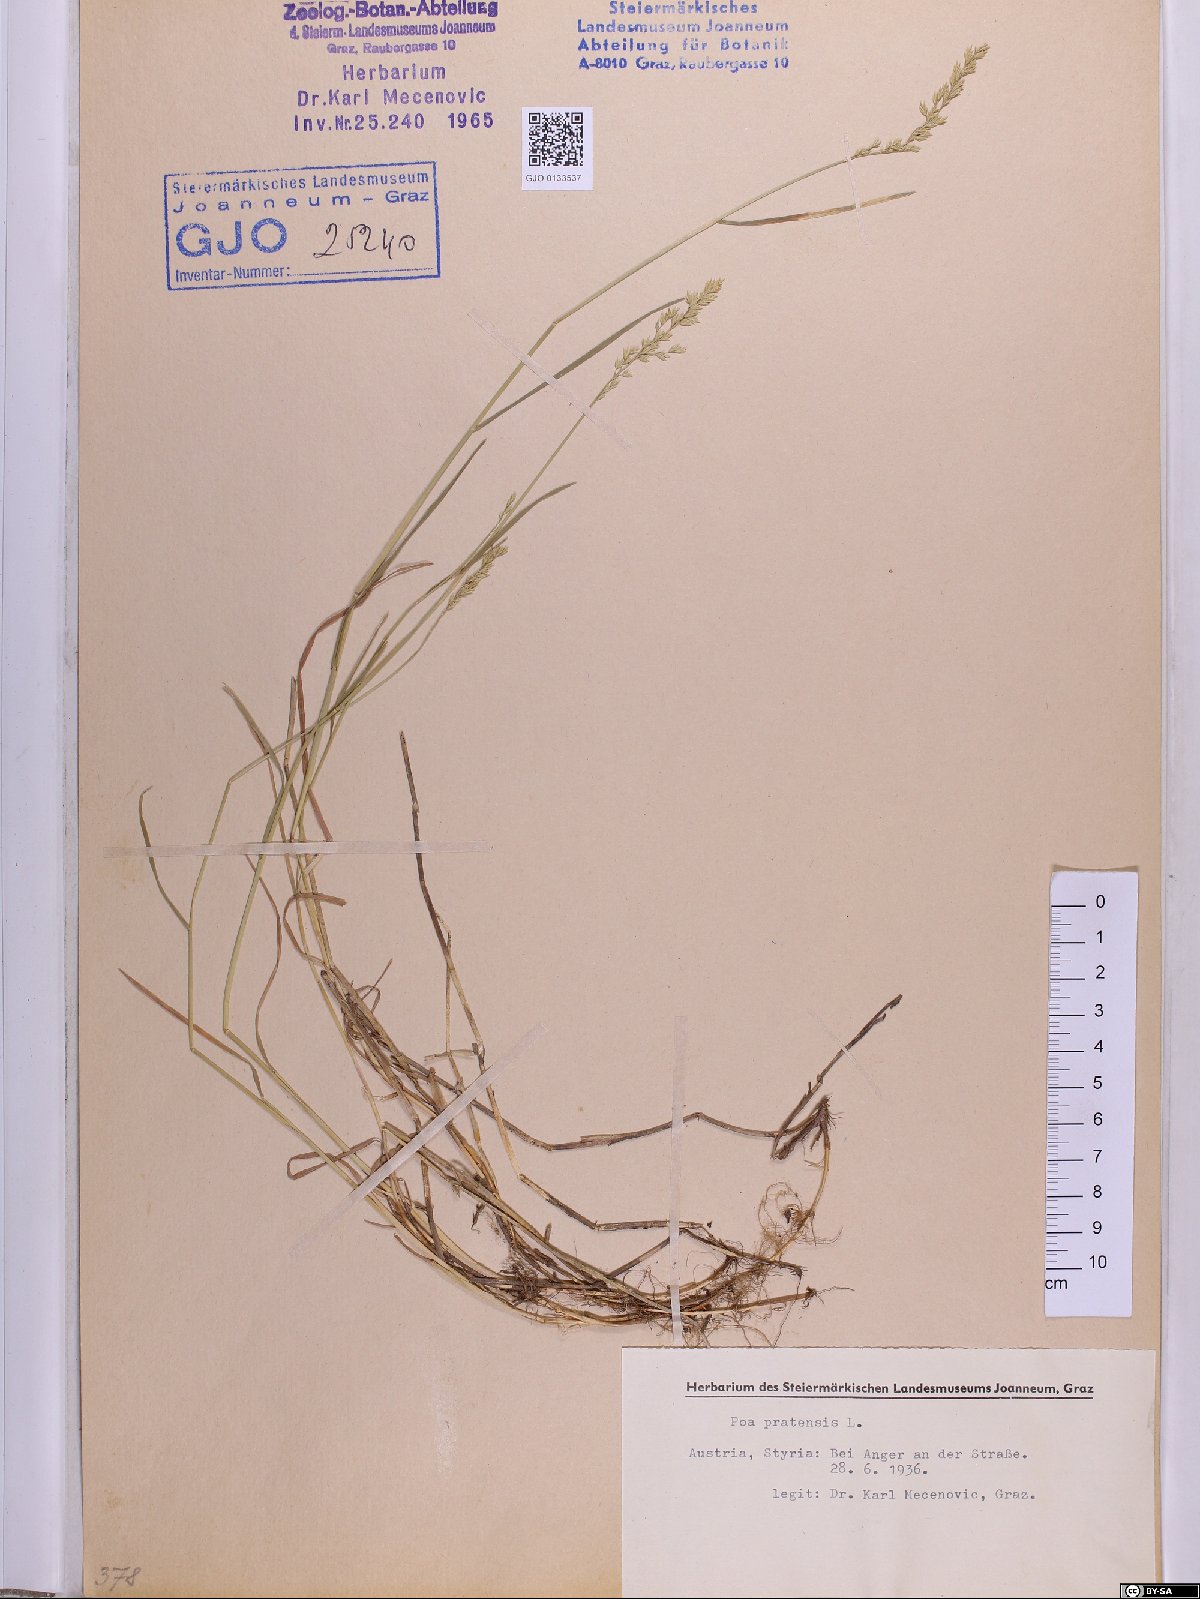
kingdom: Plantae
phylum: Tracheophyta
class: Liliopsida
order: Poales
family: Poaceae
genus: Poa
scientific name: Poa pratensis
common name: Kentucky bluegrass
